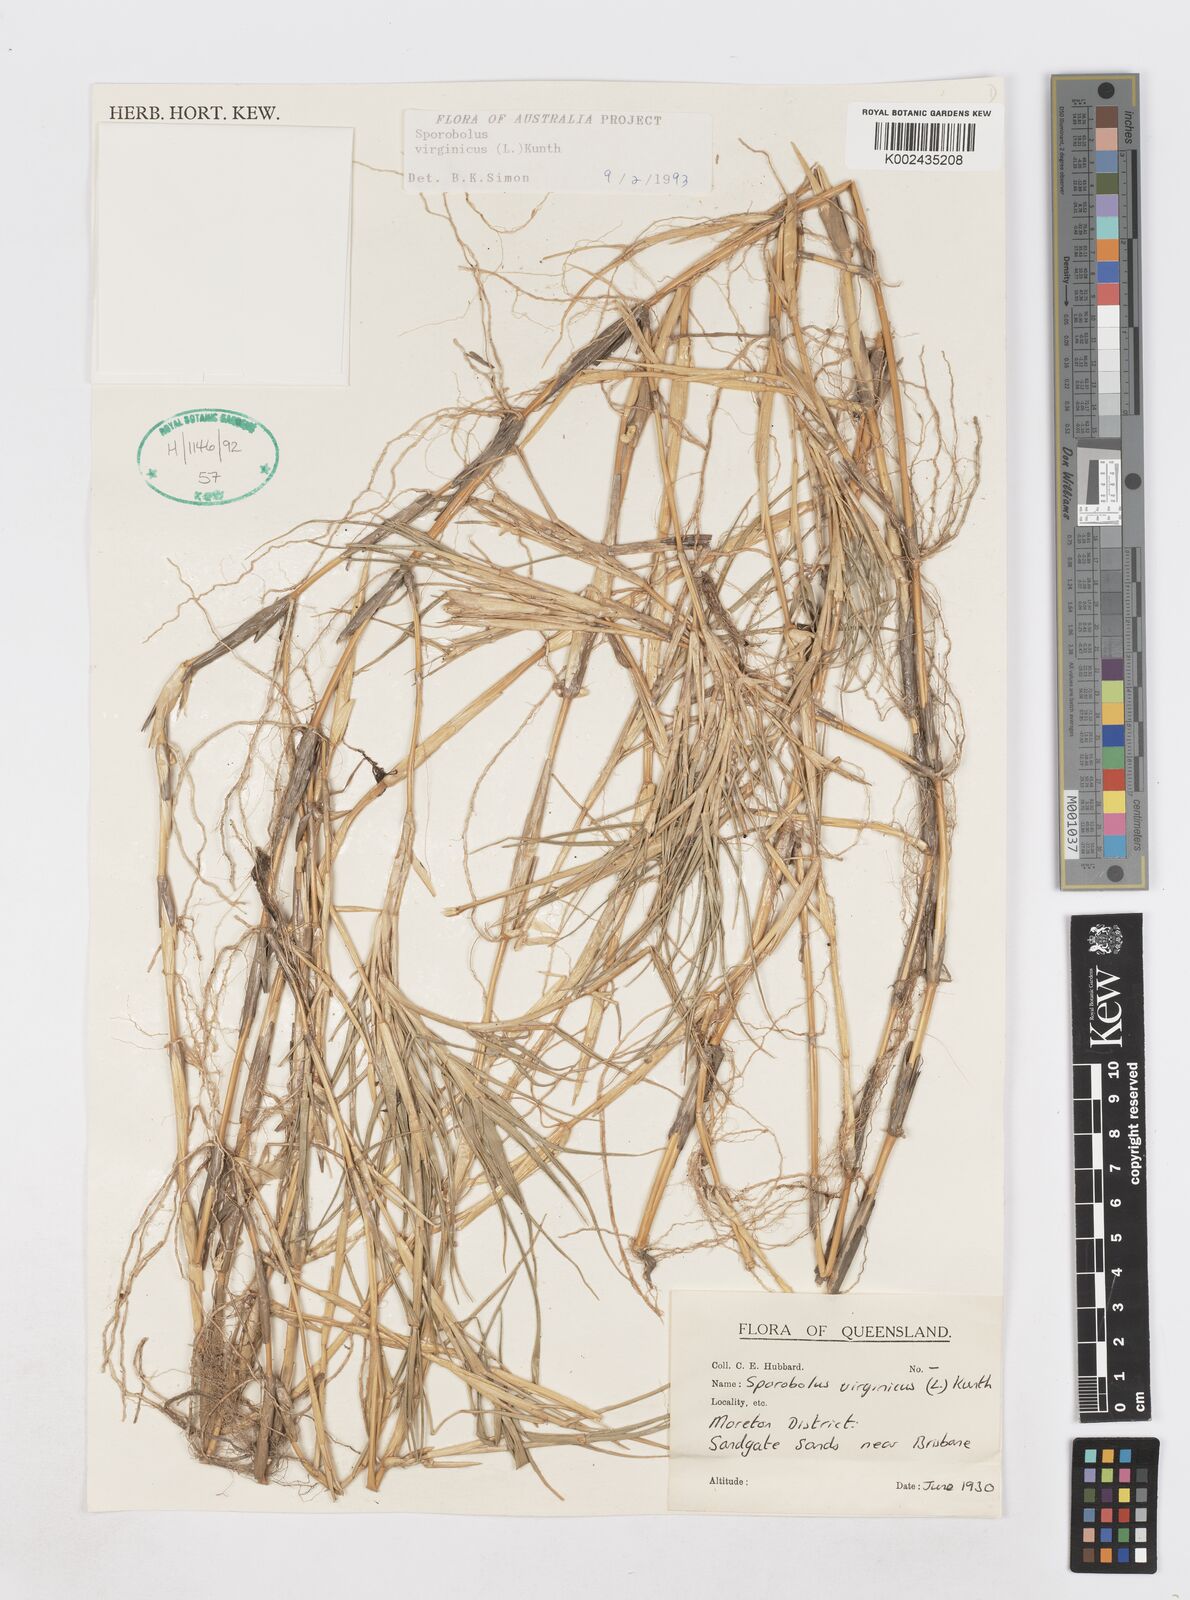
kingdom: Plantae
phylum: Tracheophyta
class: Liliopsida
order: Poales
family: Poaceae
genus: Sporobolus
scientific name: Sporobolus virginicus
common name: Beach dropseed
